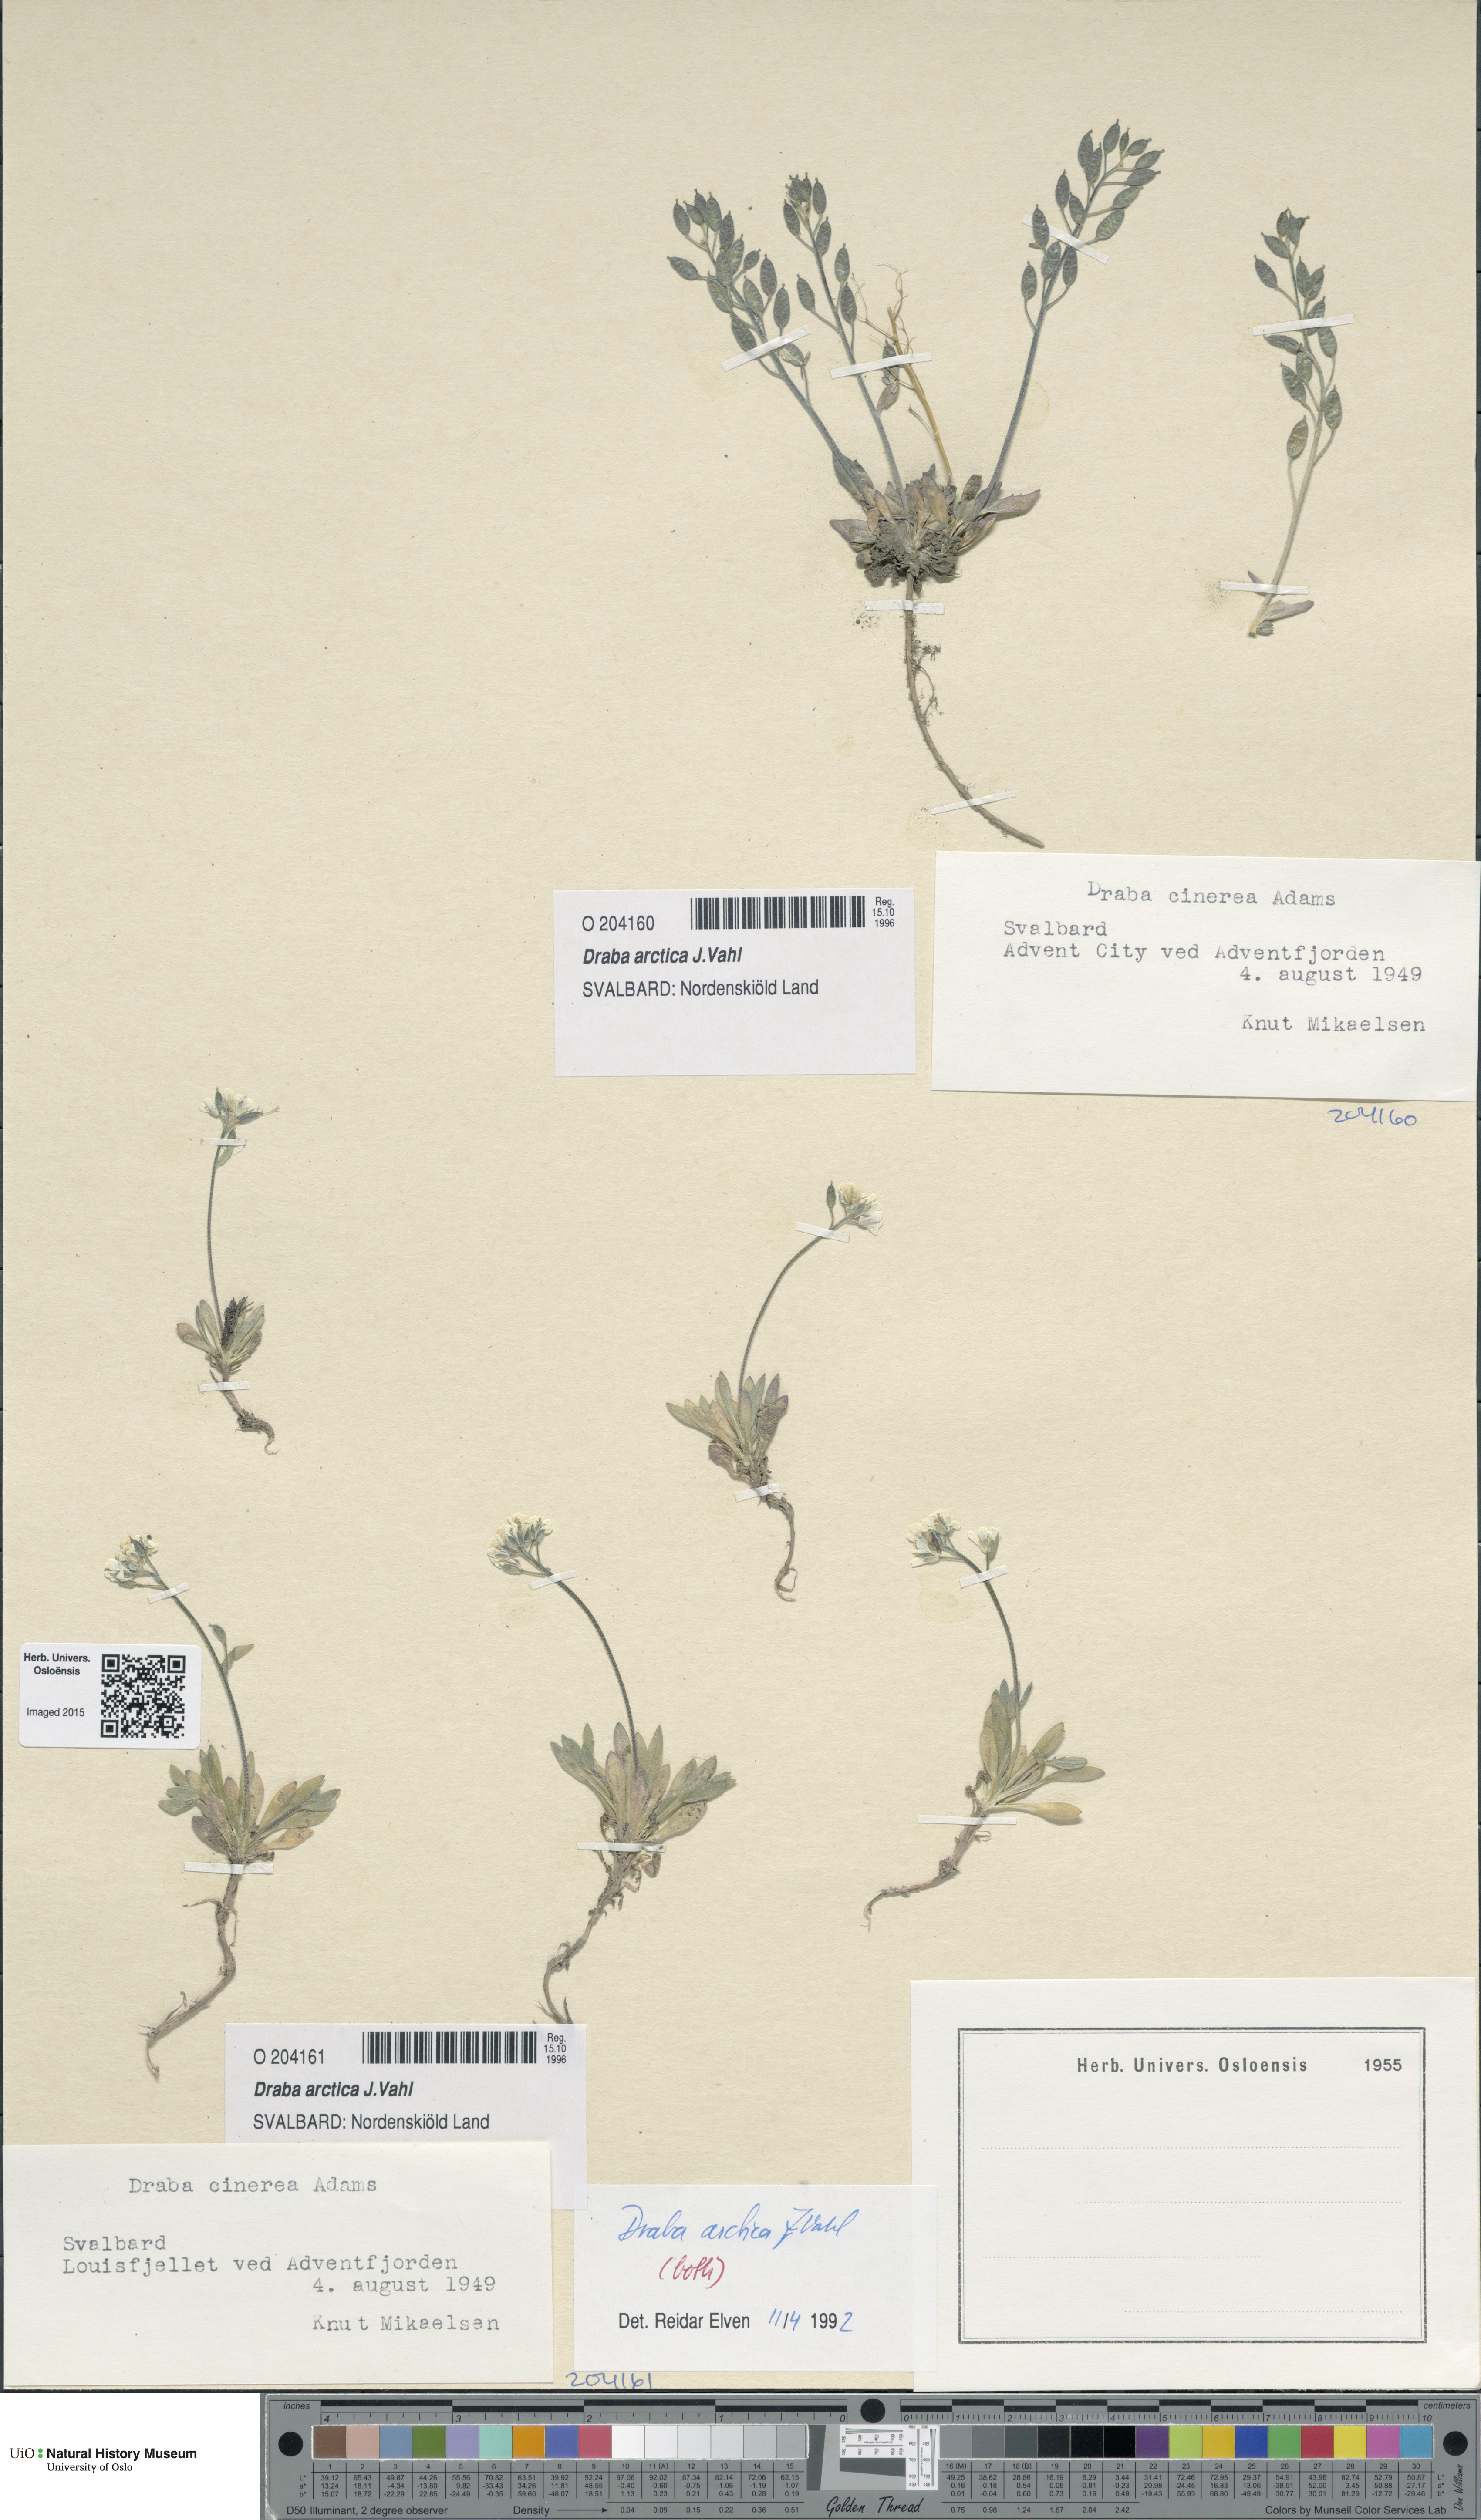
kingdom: Plantae
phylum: Tracheophyta
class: Magnoliopsida
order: Brassicales
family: Brassicaceae
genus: Draba
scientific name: Draba arctica
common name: Arctic draba
